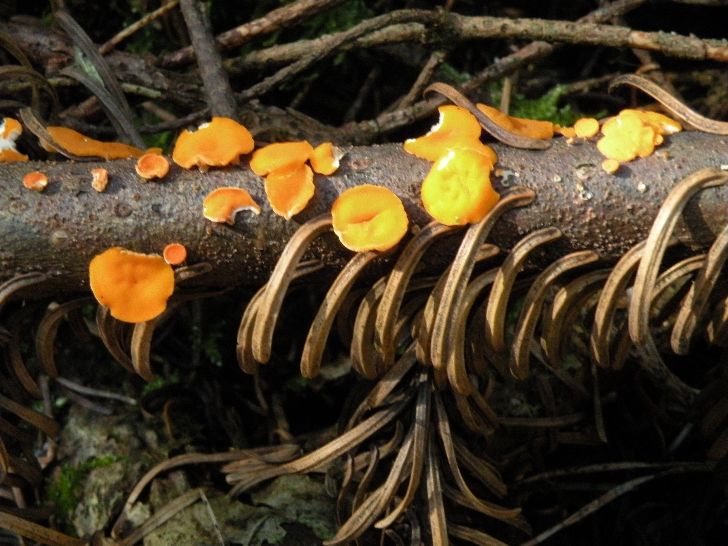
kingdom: Fungi
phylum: Ascomycota
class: Pezizomycetes
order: Pezizales
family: Sarcoscyphaceae
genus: Pithya
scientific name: Pithya vulgaris
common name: stor dukatbæger
